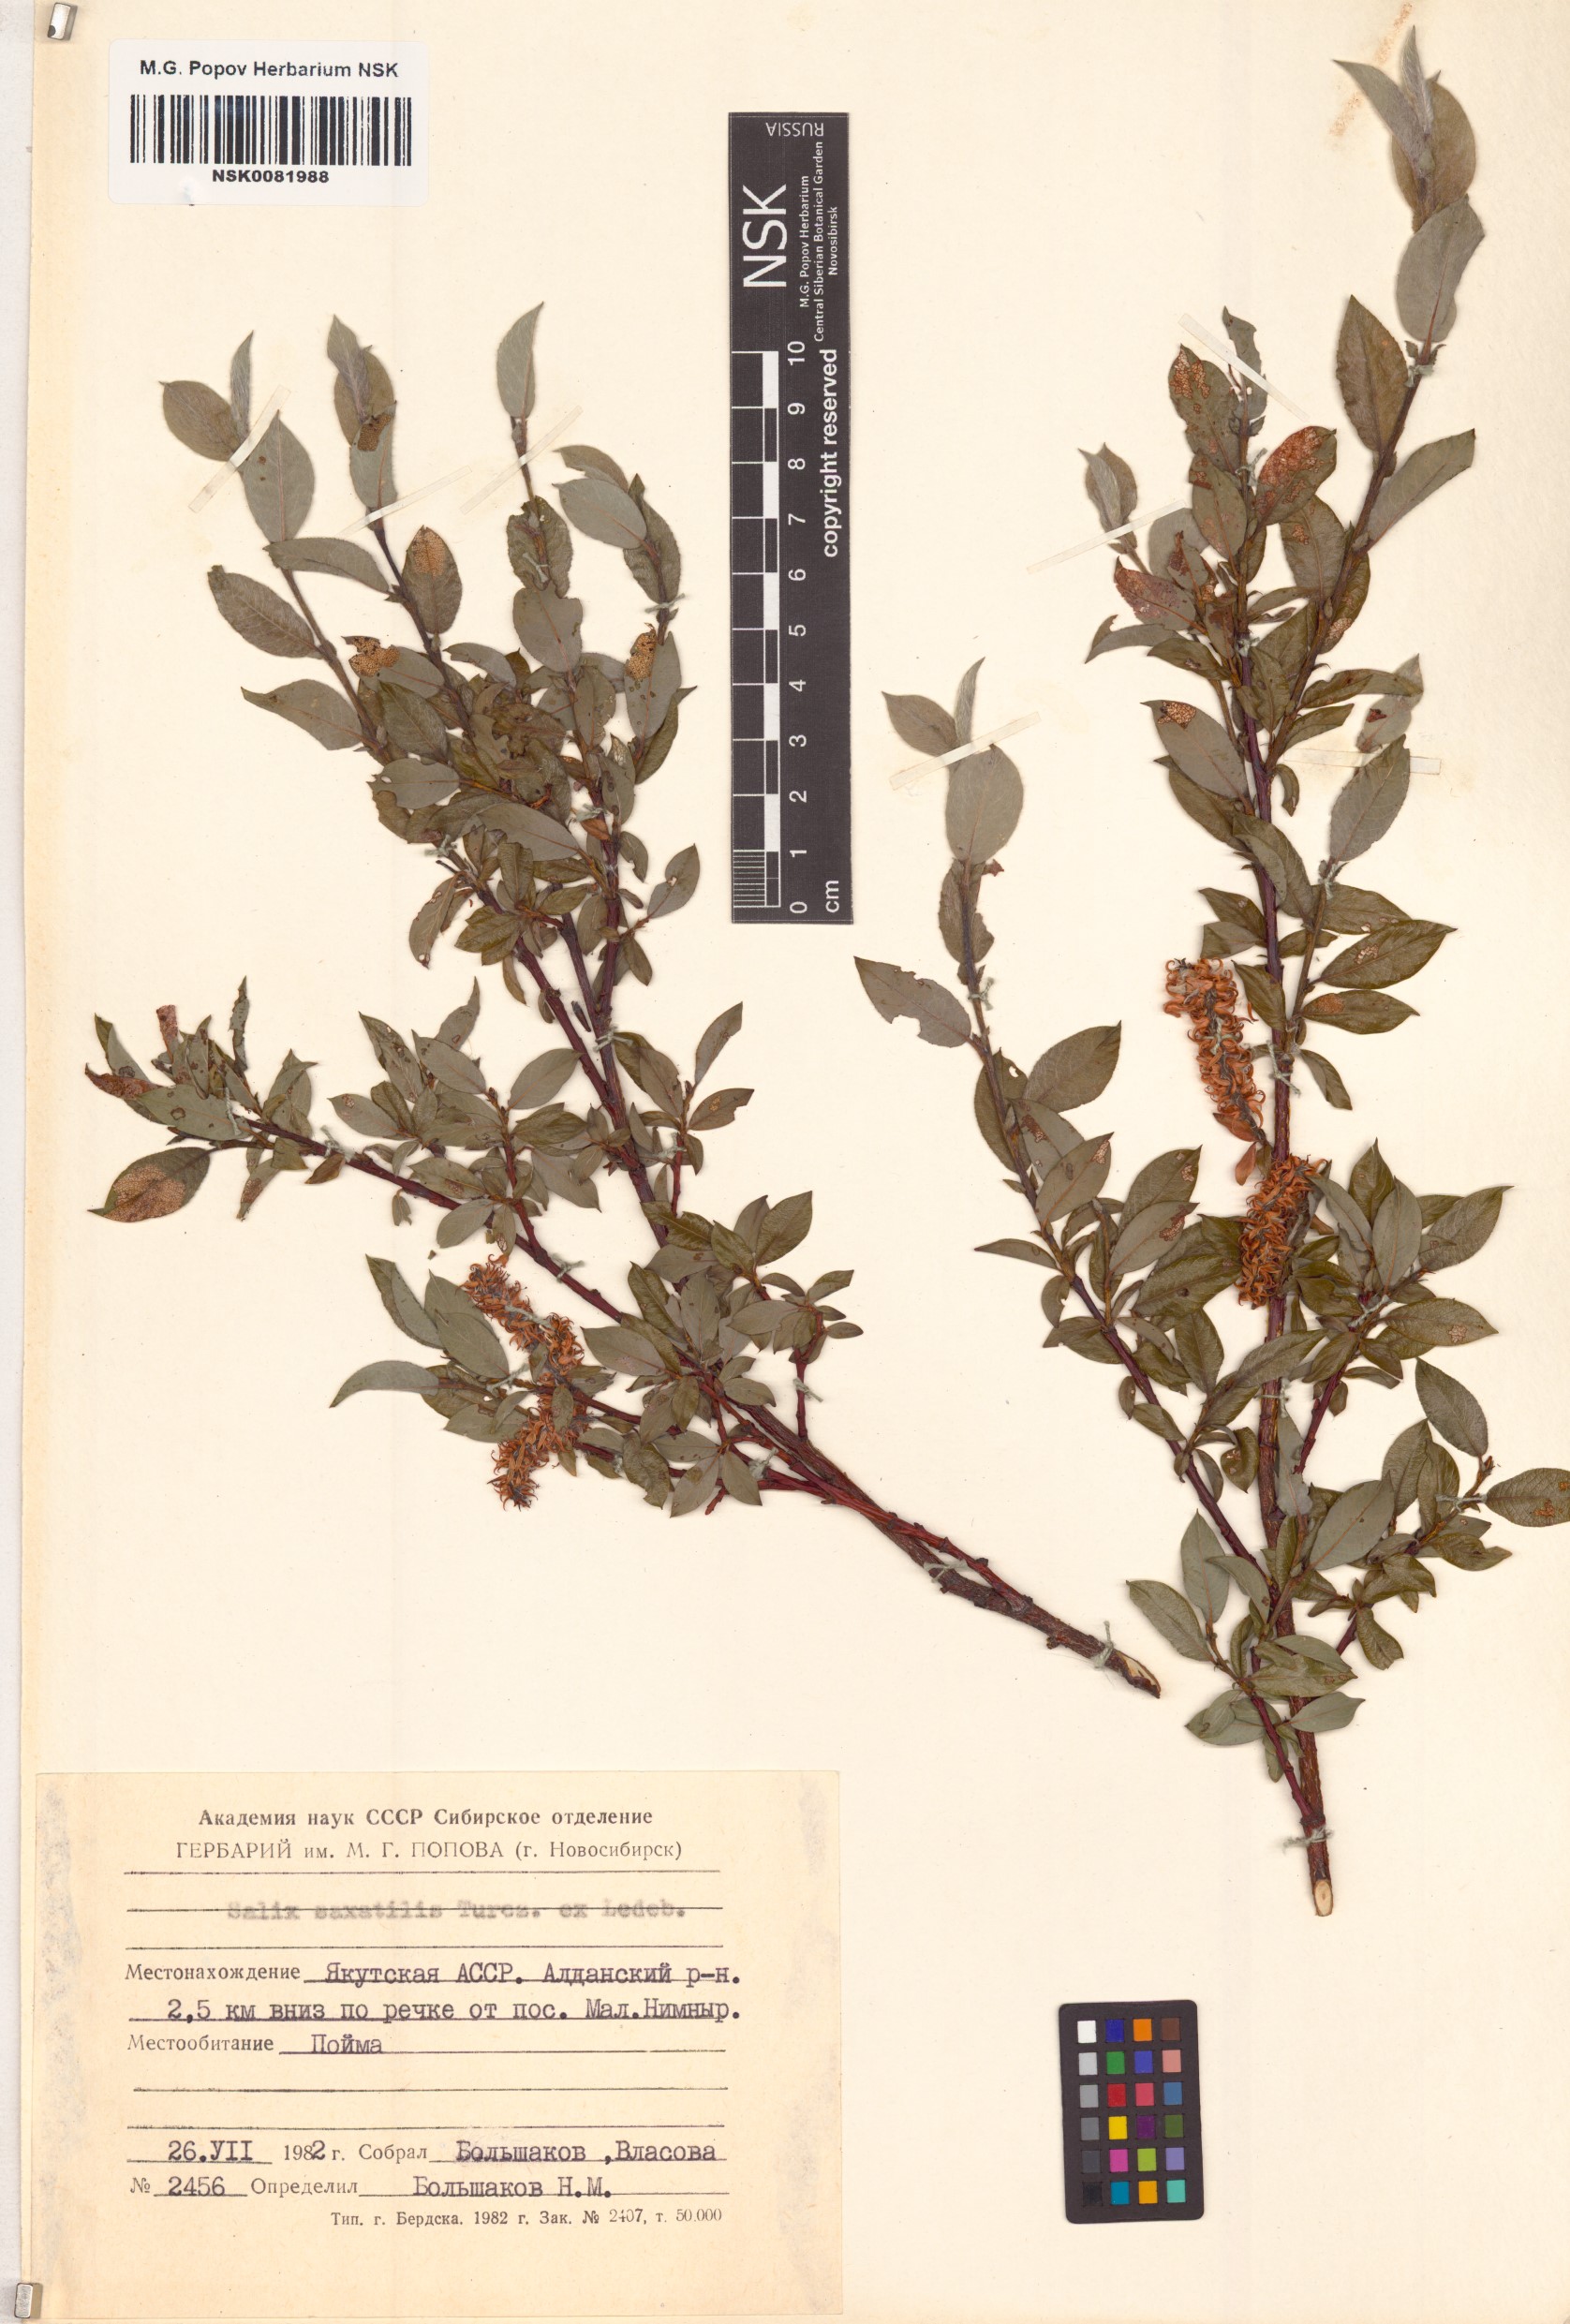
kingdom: Plantae
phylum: Tracheophyta
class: Magnoliopsida
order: Malpighiales
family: Salicaceae
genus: Salix
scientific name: Salix saxatilis
